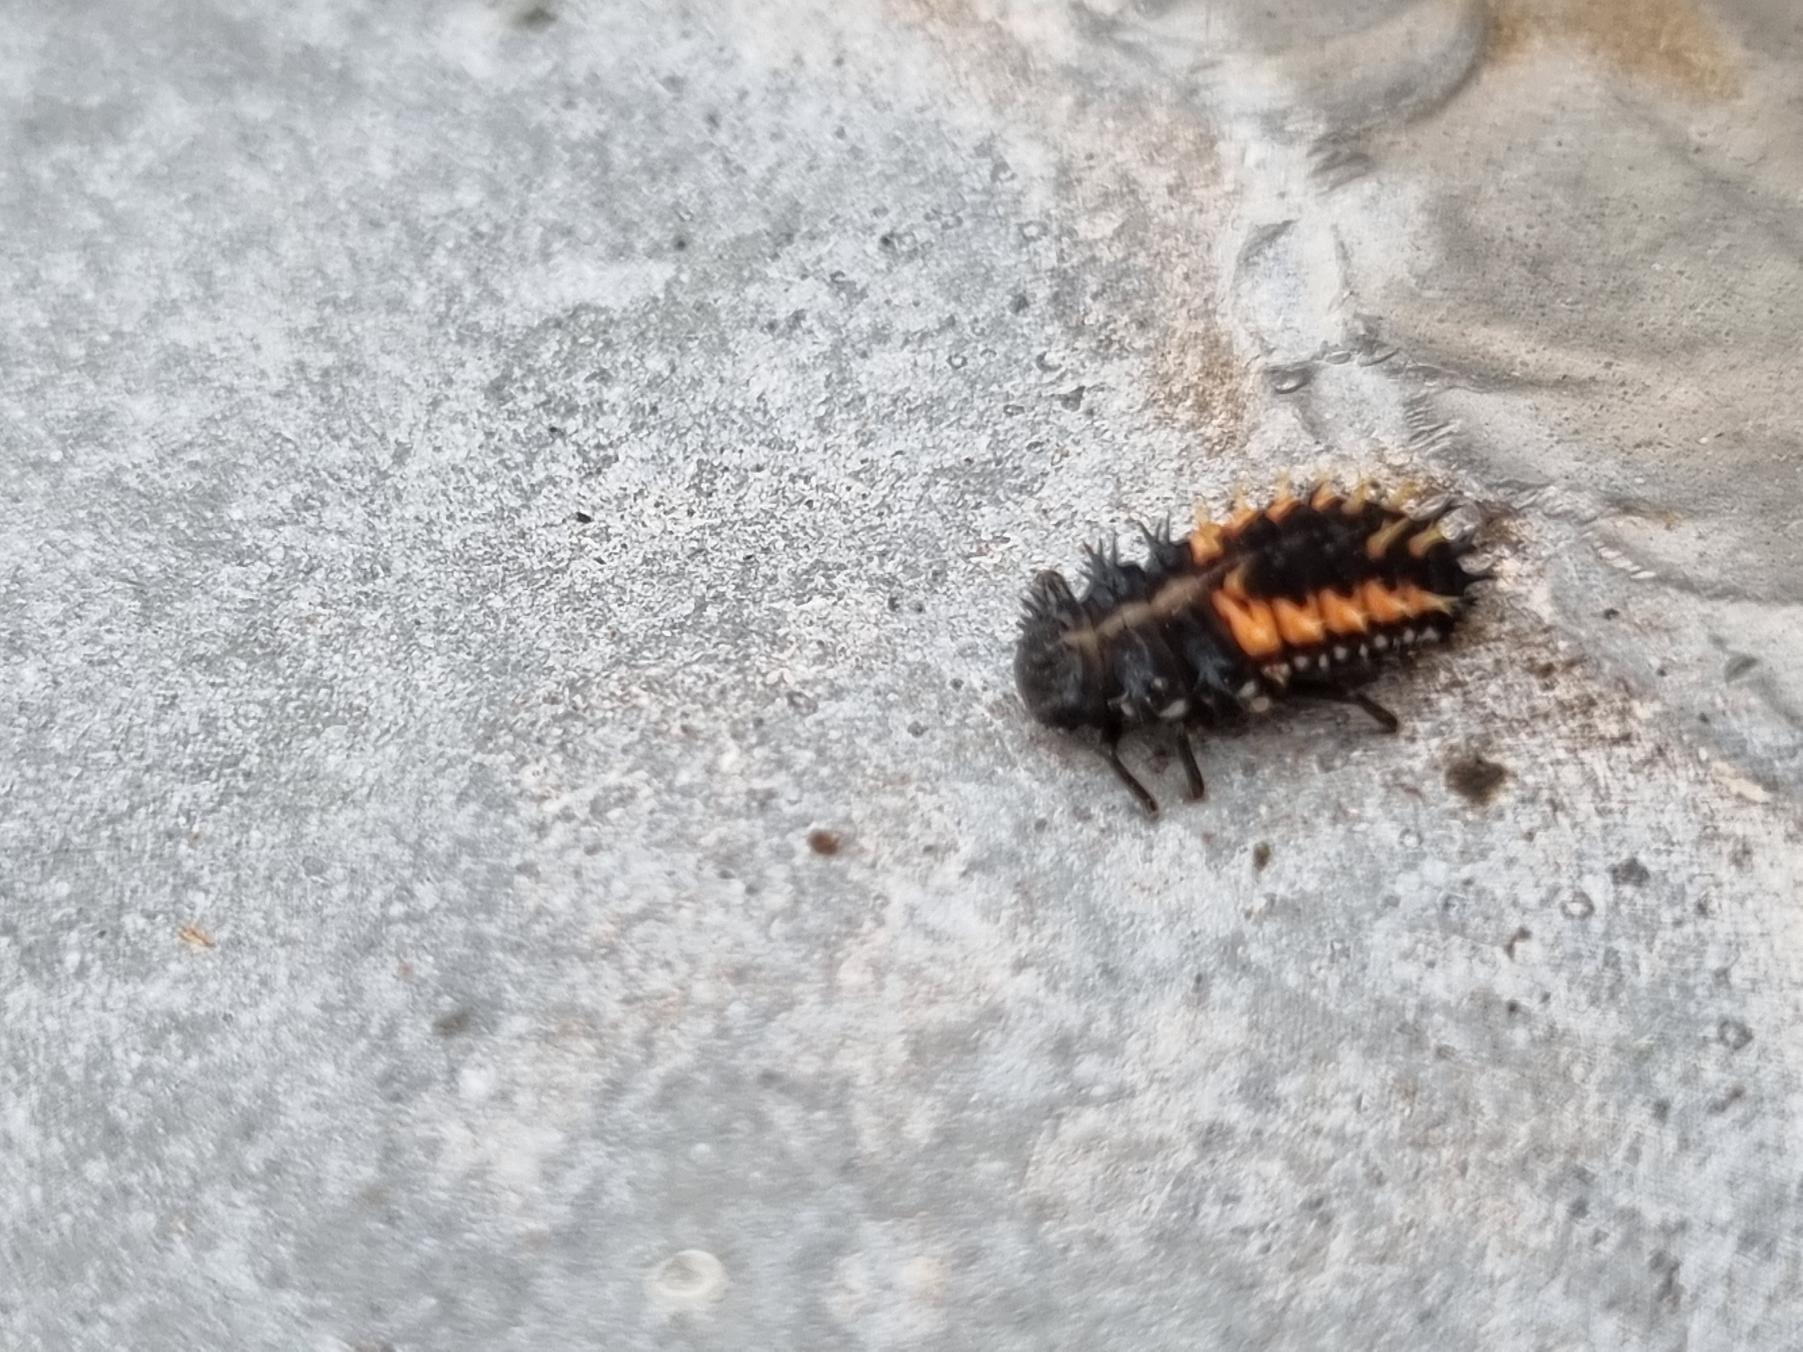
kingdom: Animalia
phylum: Arthropoda
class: Insecta
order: Coleoptera
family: Coccinellidae
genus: Harmonia
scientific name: Harmonia axyridis
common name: Harlekinmariehøne
